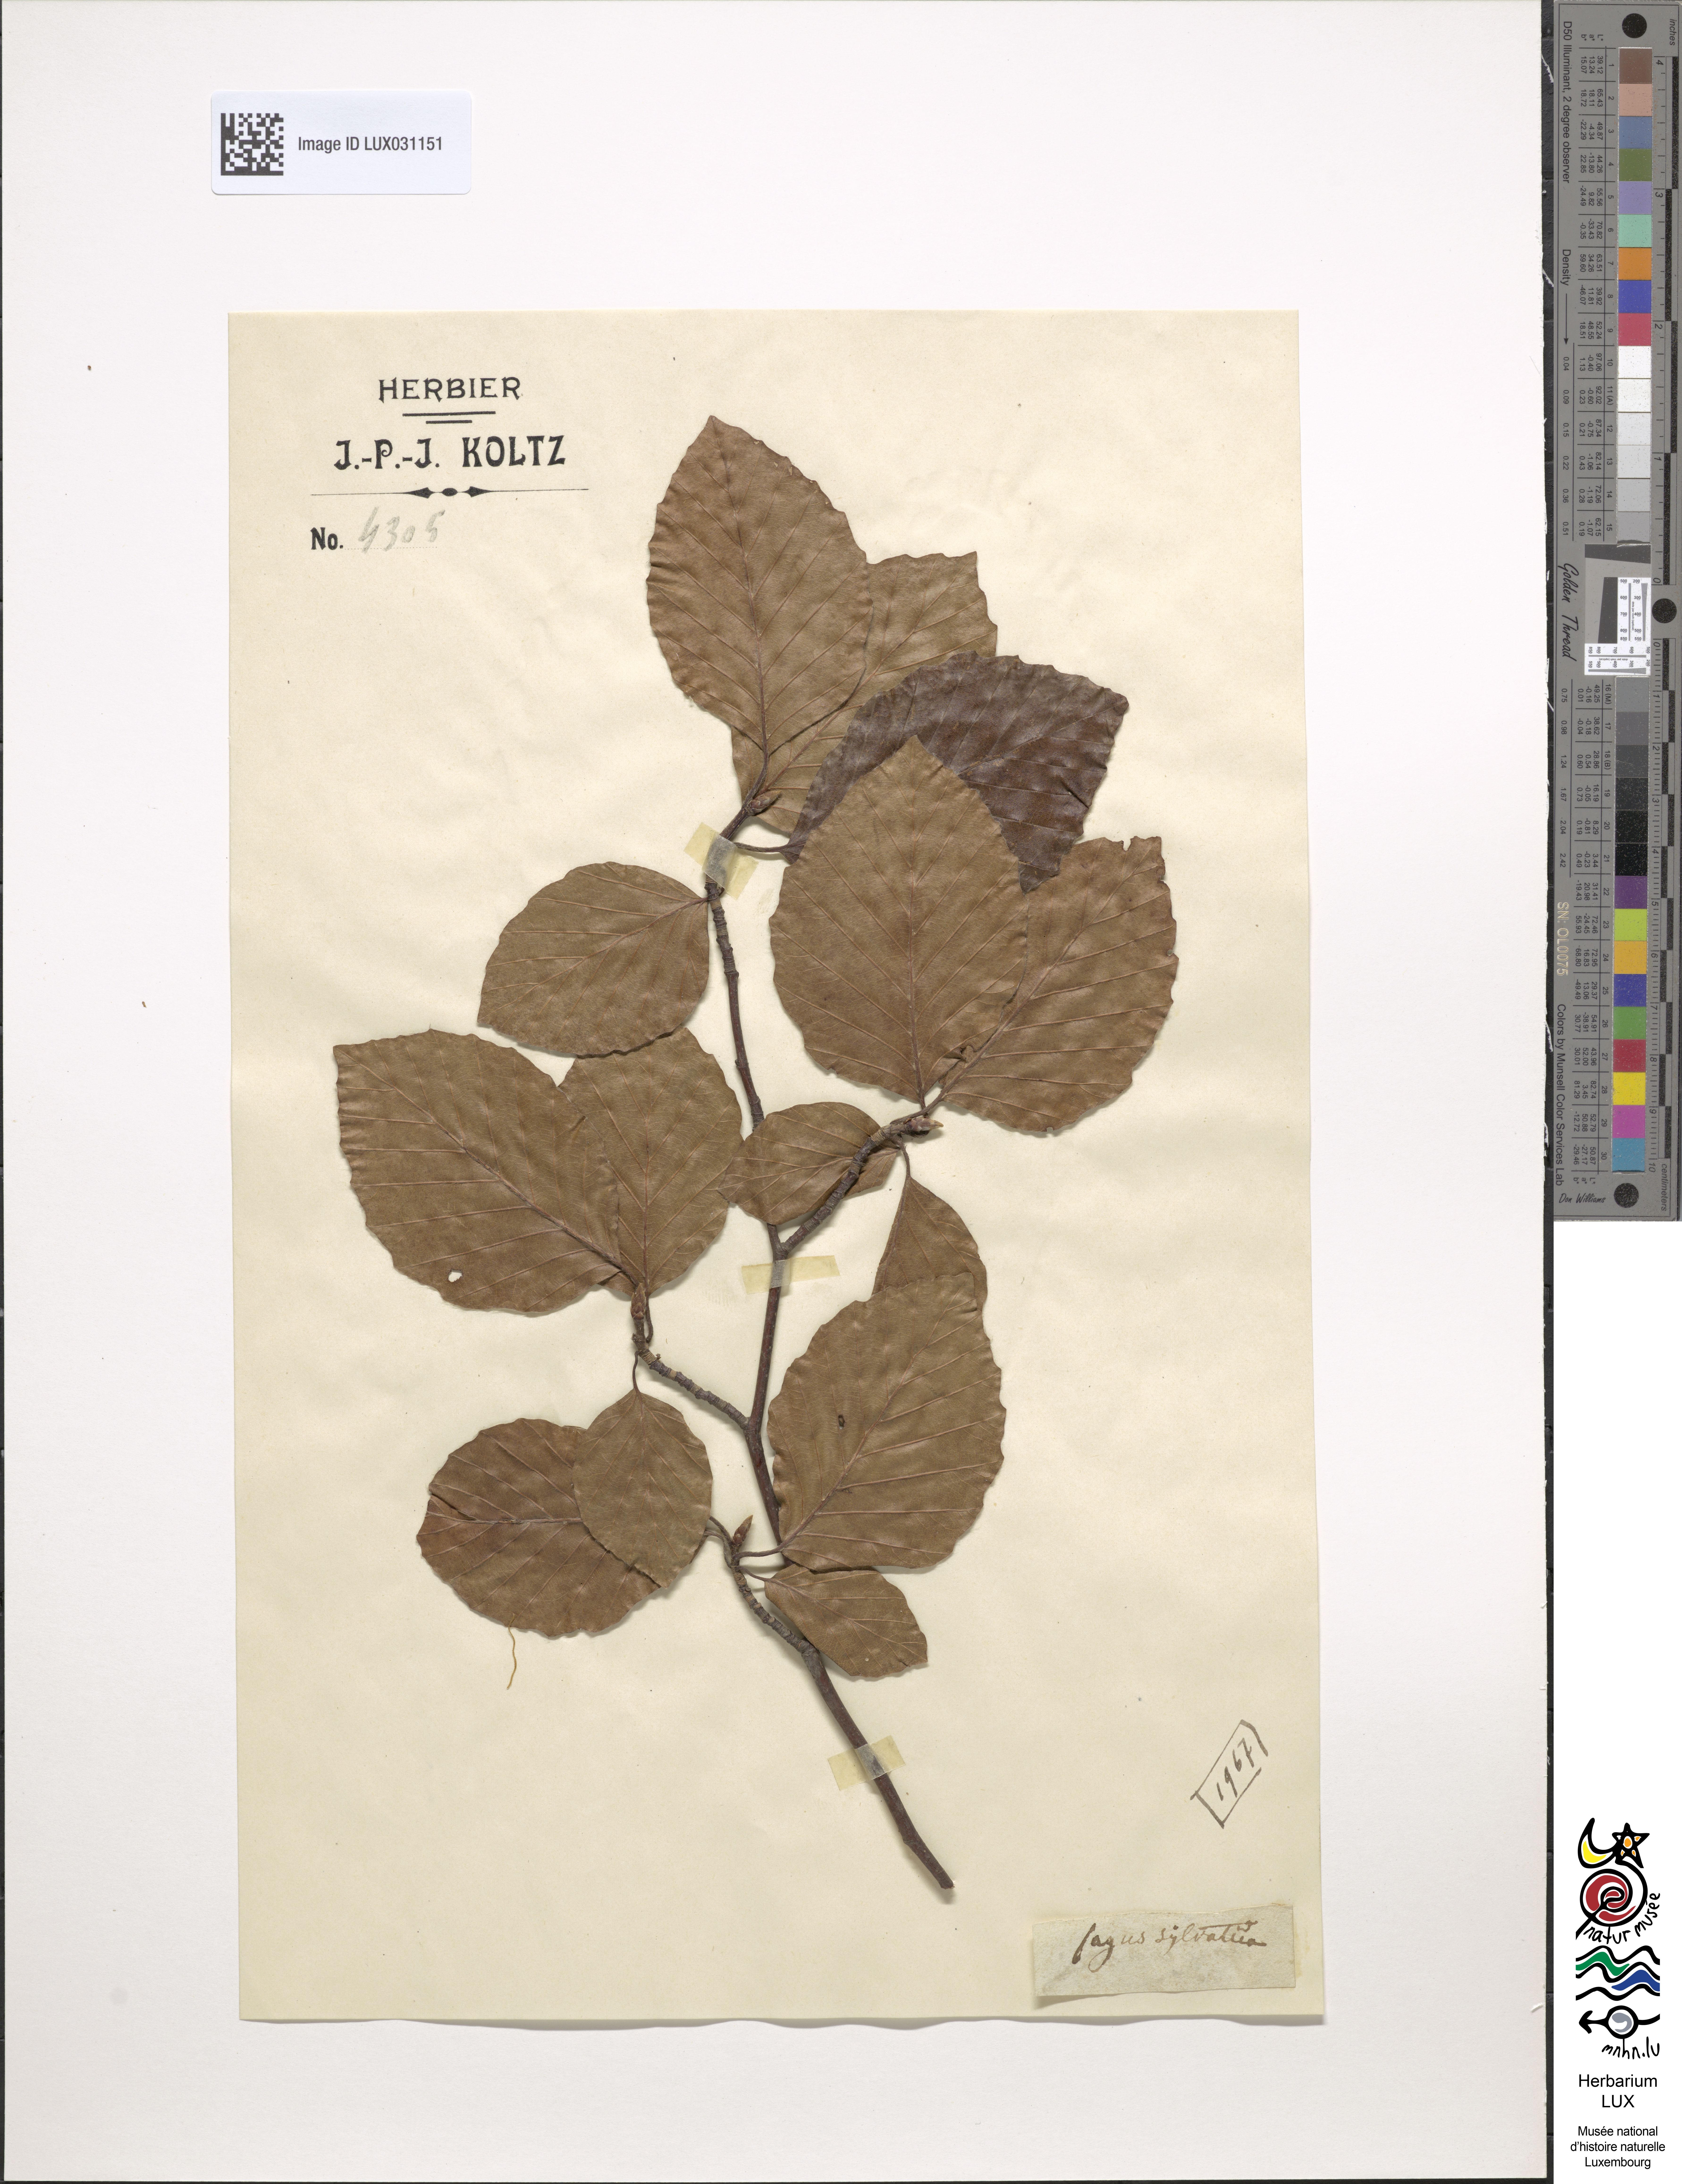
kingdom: Plantae
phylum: Tracheophyta
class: Magnoliopsida
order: Fagales
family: Fagaceae
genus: Fagus
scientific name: Fagus sylvatica
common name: Beech
